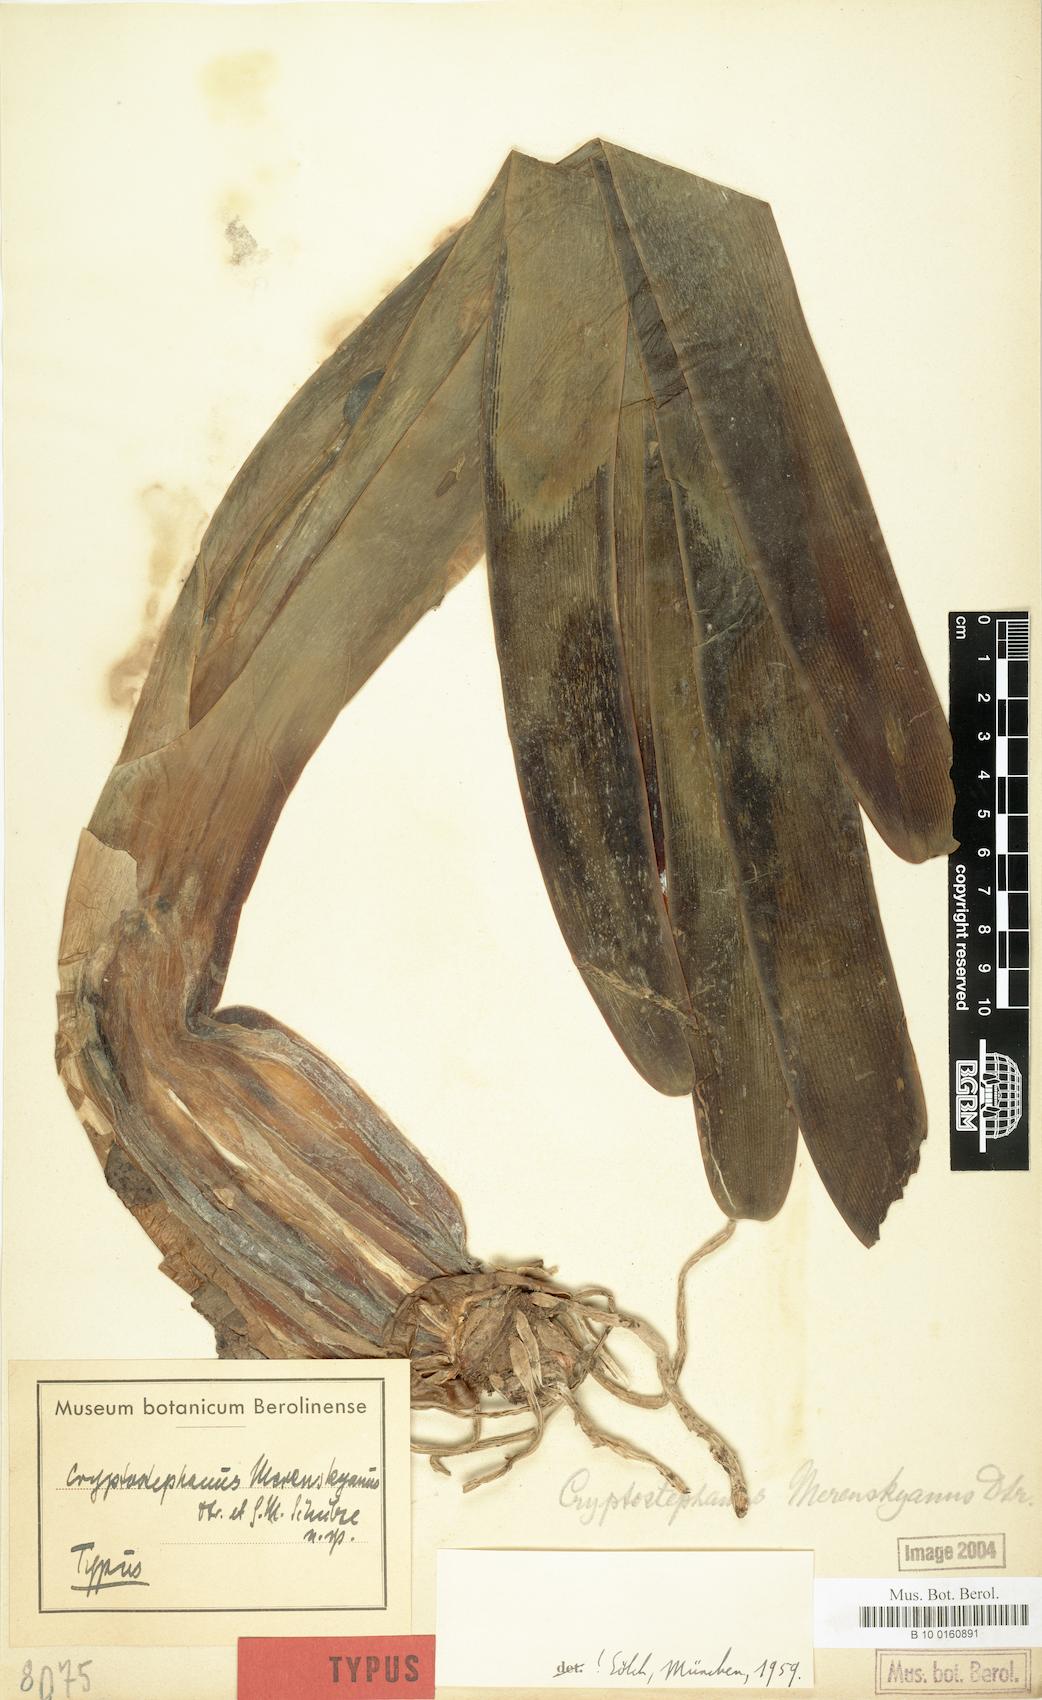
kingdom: Plantae
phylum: Tracheophyta
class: Liliopsida
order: Asparagales
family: Amaryllidaceae
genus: Cyrtanthus
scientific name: Cyrtanthus herrei
